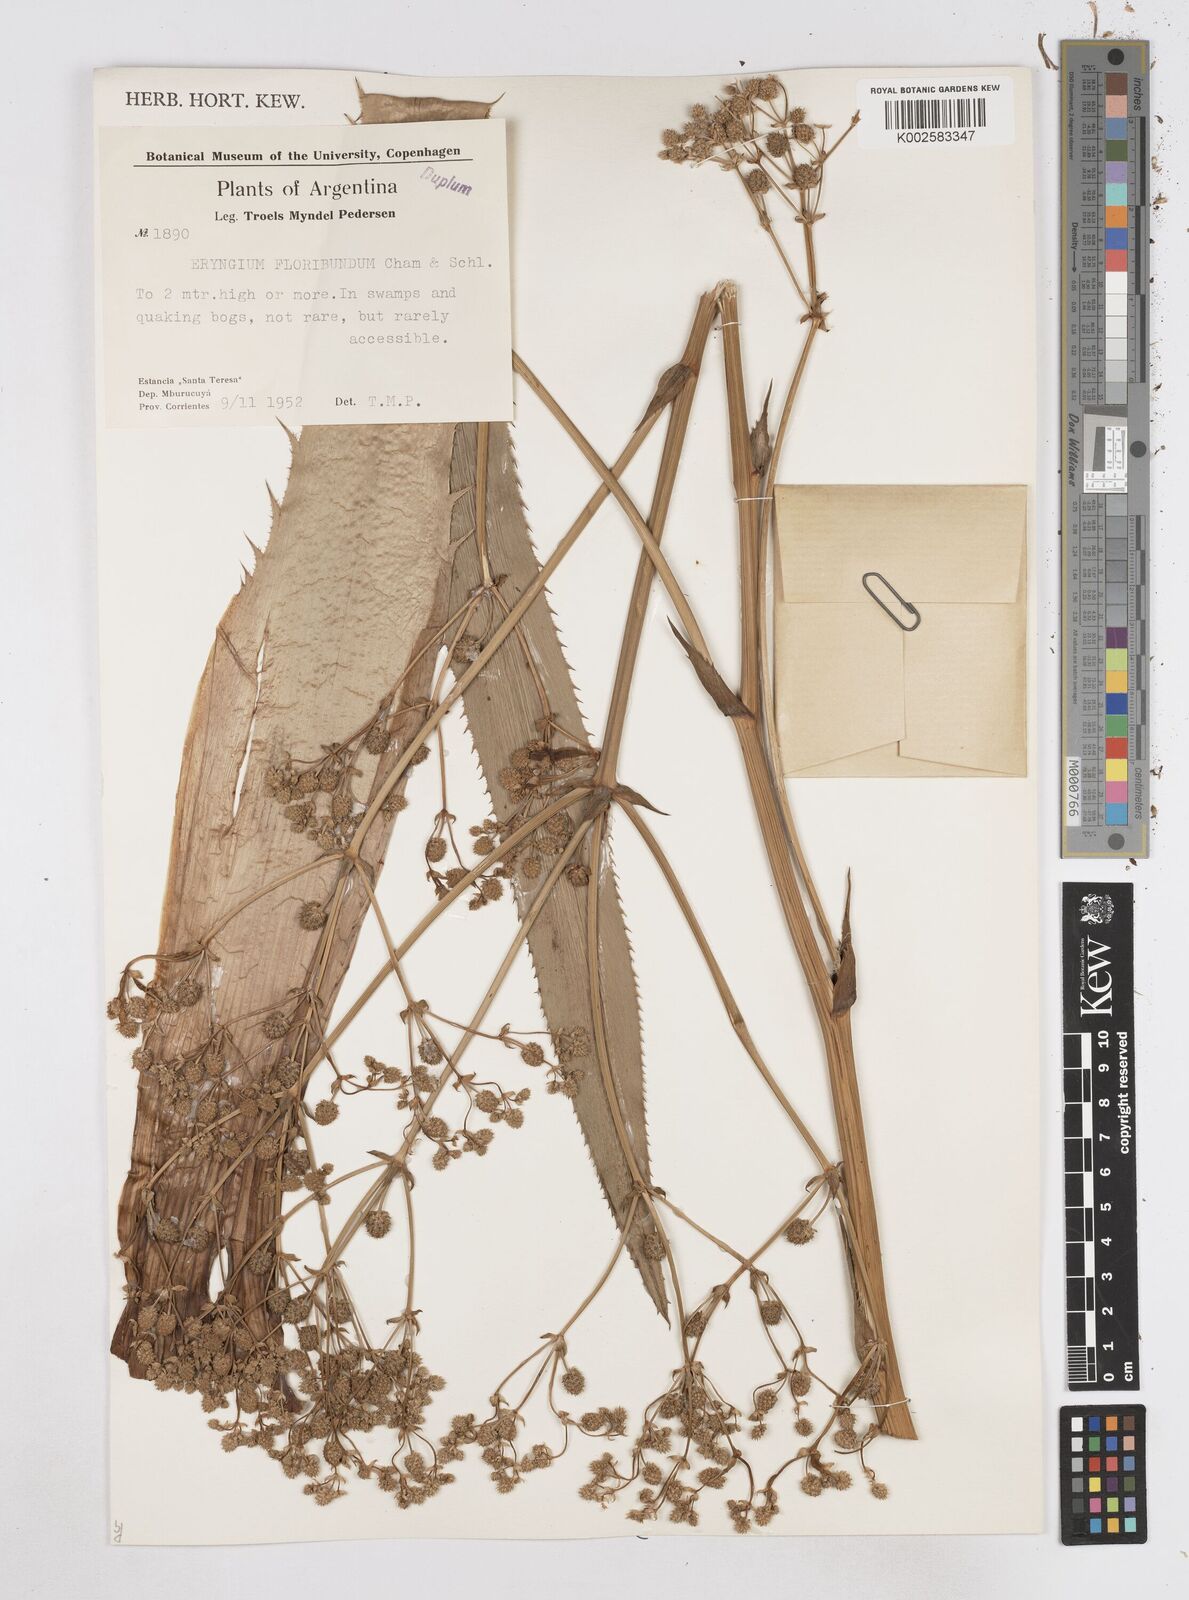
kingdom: Plantae
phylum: Tracheophyta
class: Magnoliopsida
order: Apiales
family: Apiaceae
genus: Eryngium
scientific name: Eryngium floribundum
